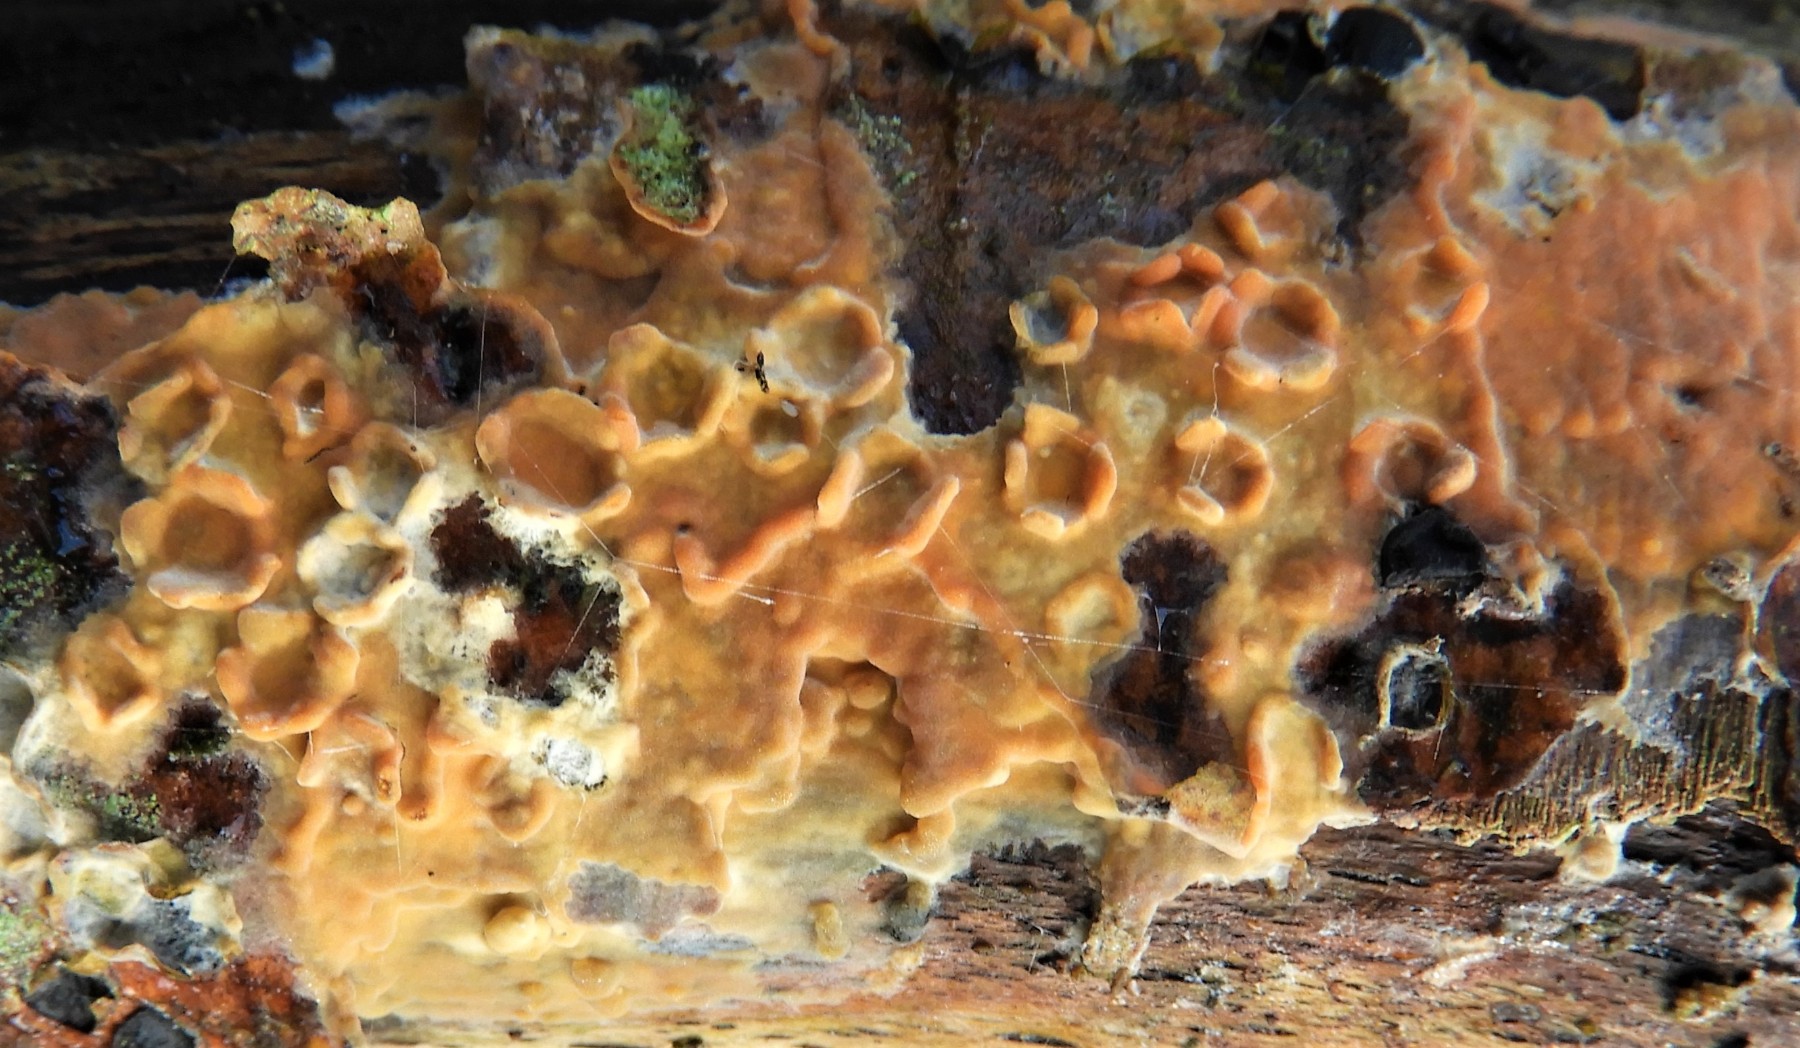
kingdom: Fungi
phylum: Basidiomycota
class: Agaricomycetes
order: Russulales
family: Peniophoraceae
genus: Peniophora
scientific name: Peniophora incarnata
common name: laksefarvet voksskind
